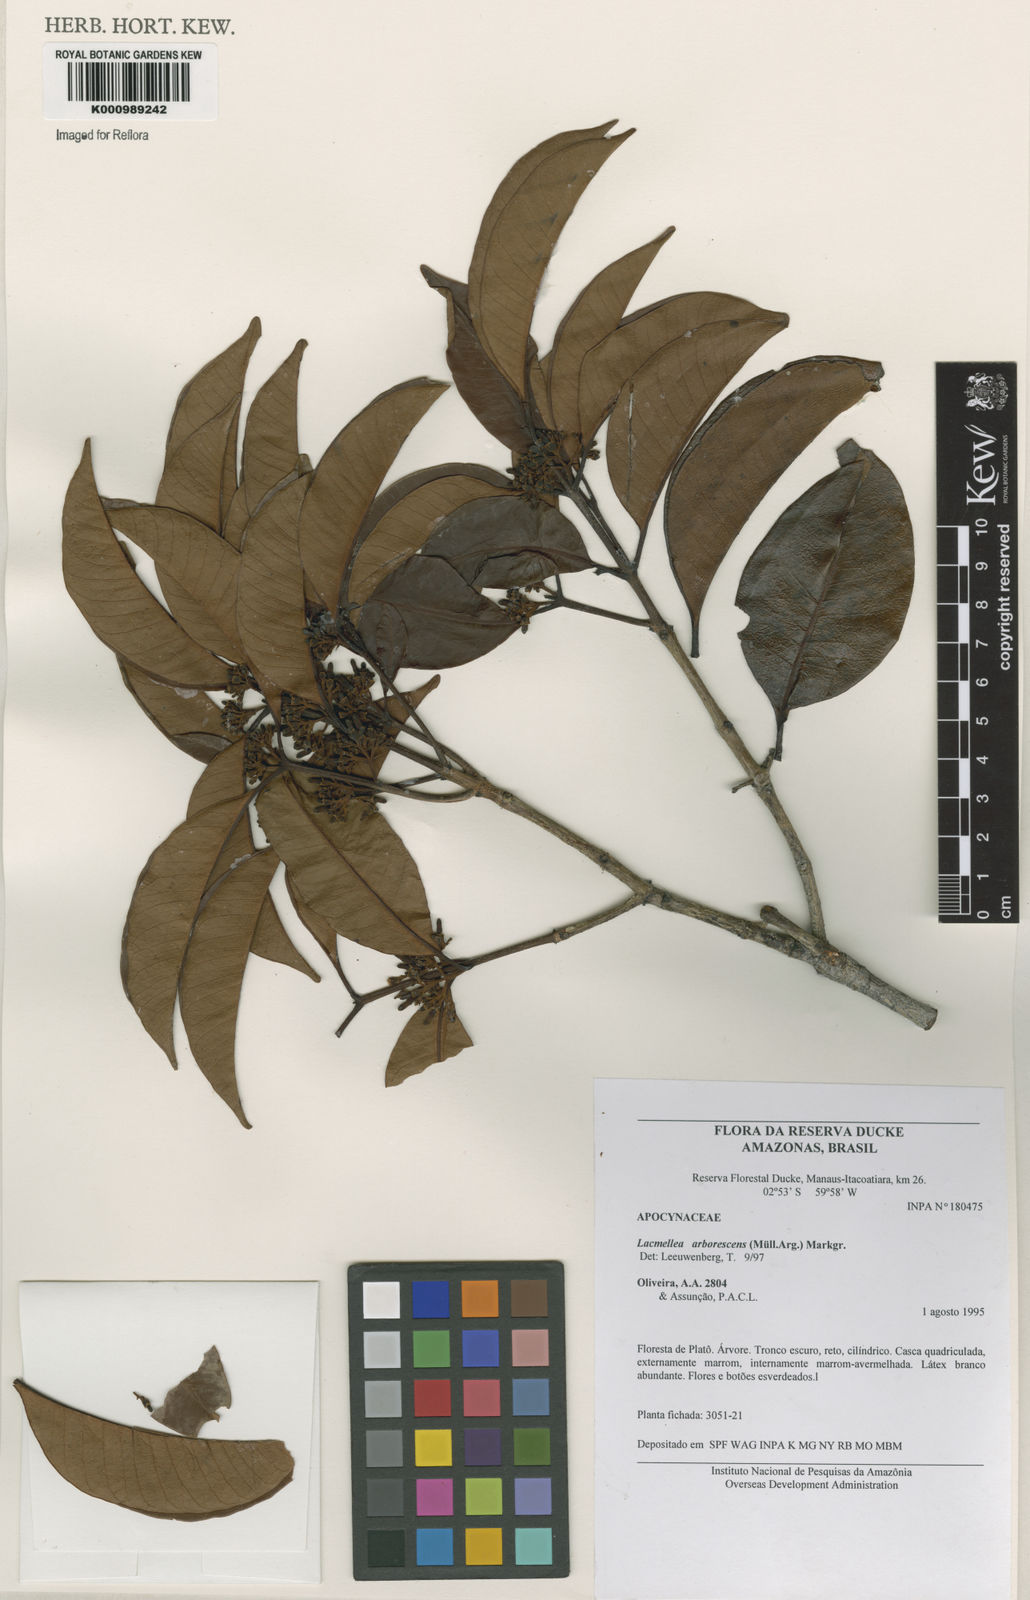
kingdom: Plantae
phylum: Tracheophyta
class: Magnoliopsida
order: Gentianales
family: Apocynaceae
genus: Lacmellea
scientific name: Lacmellea
